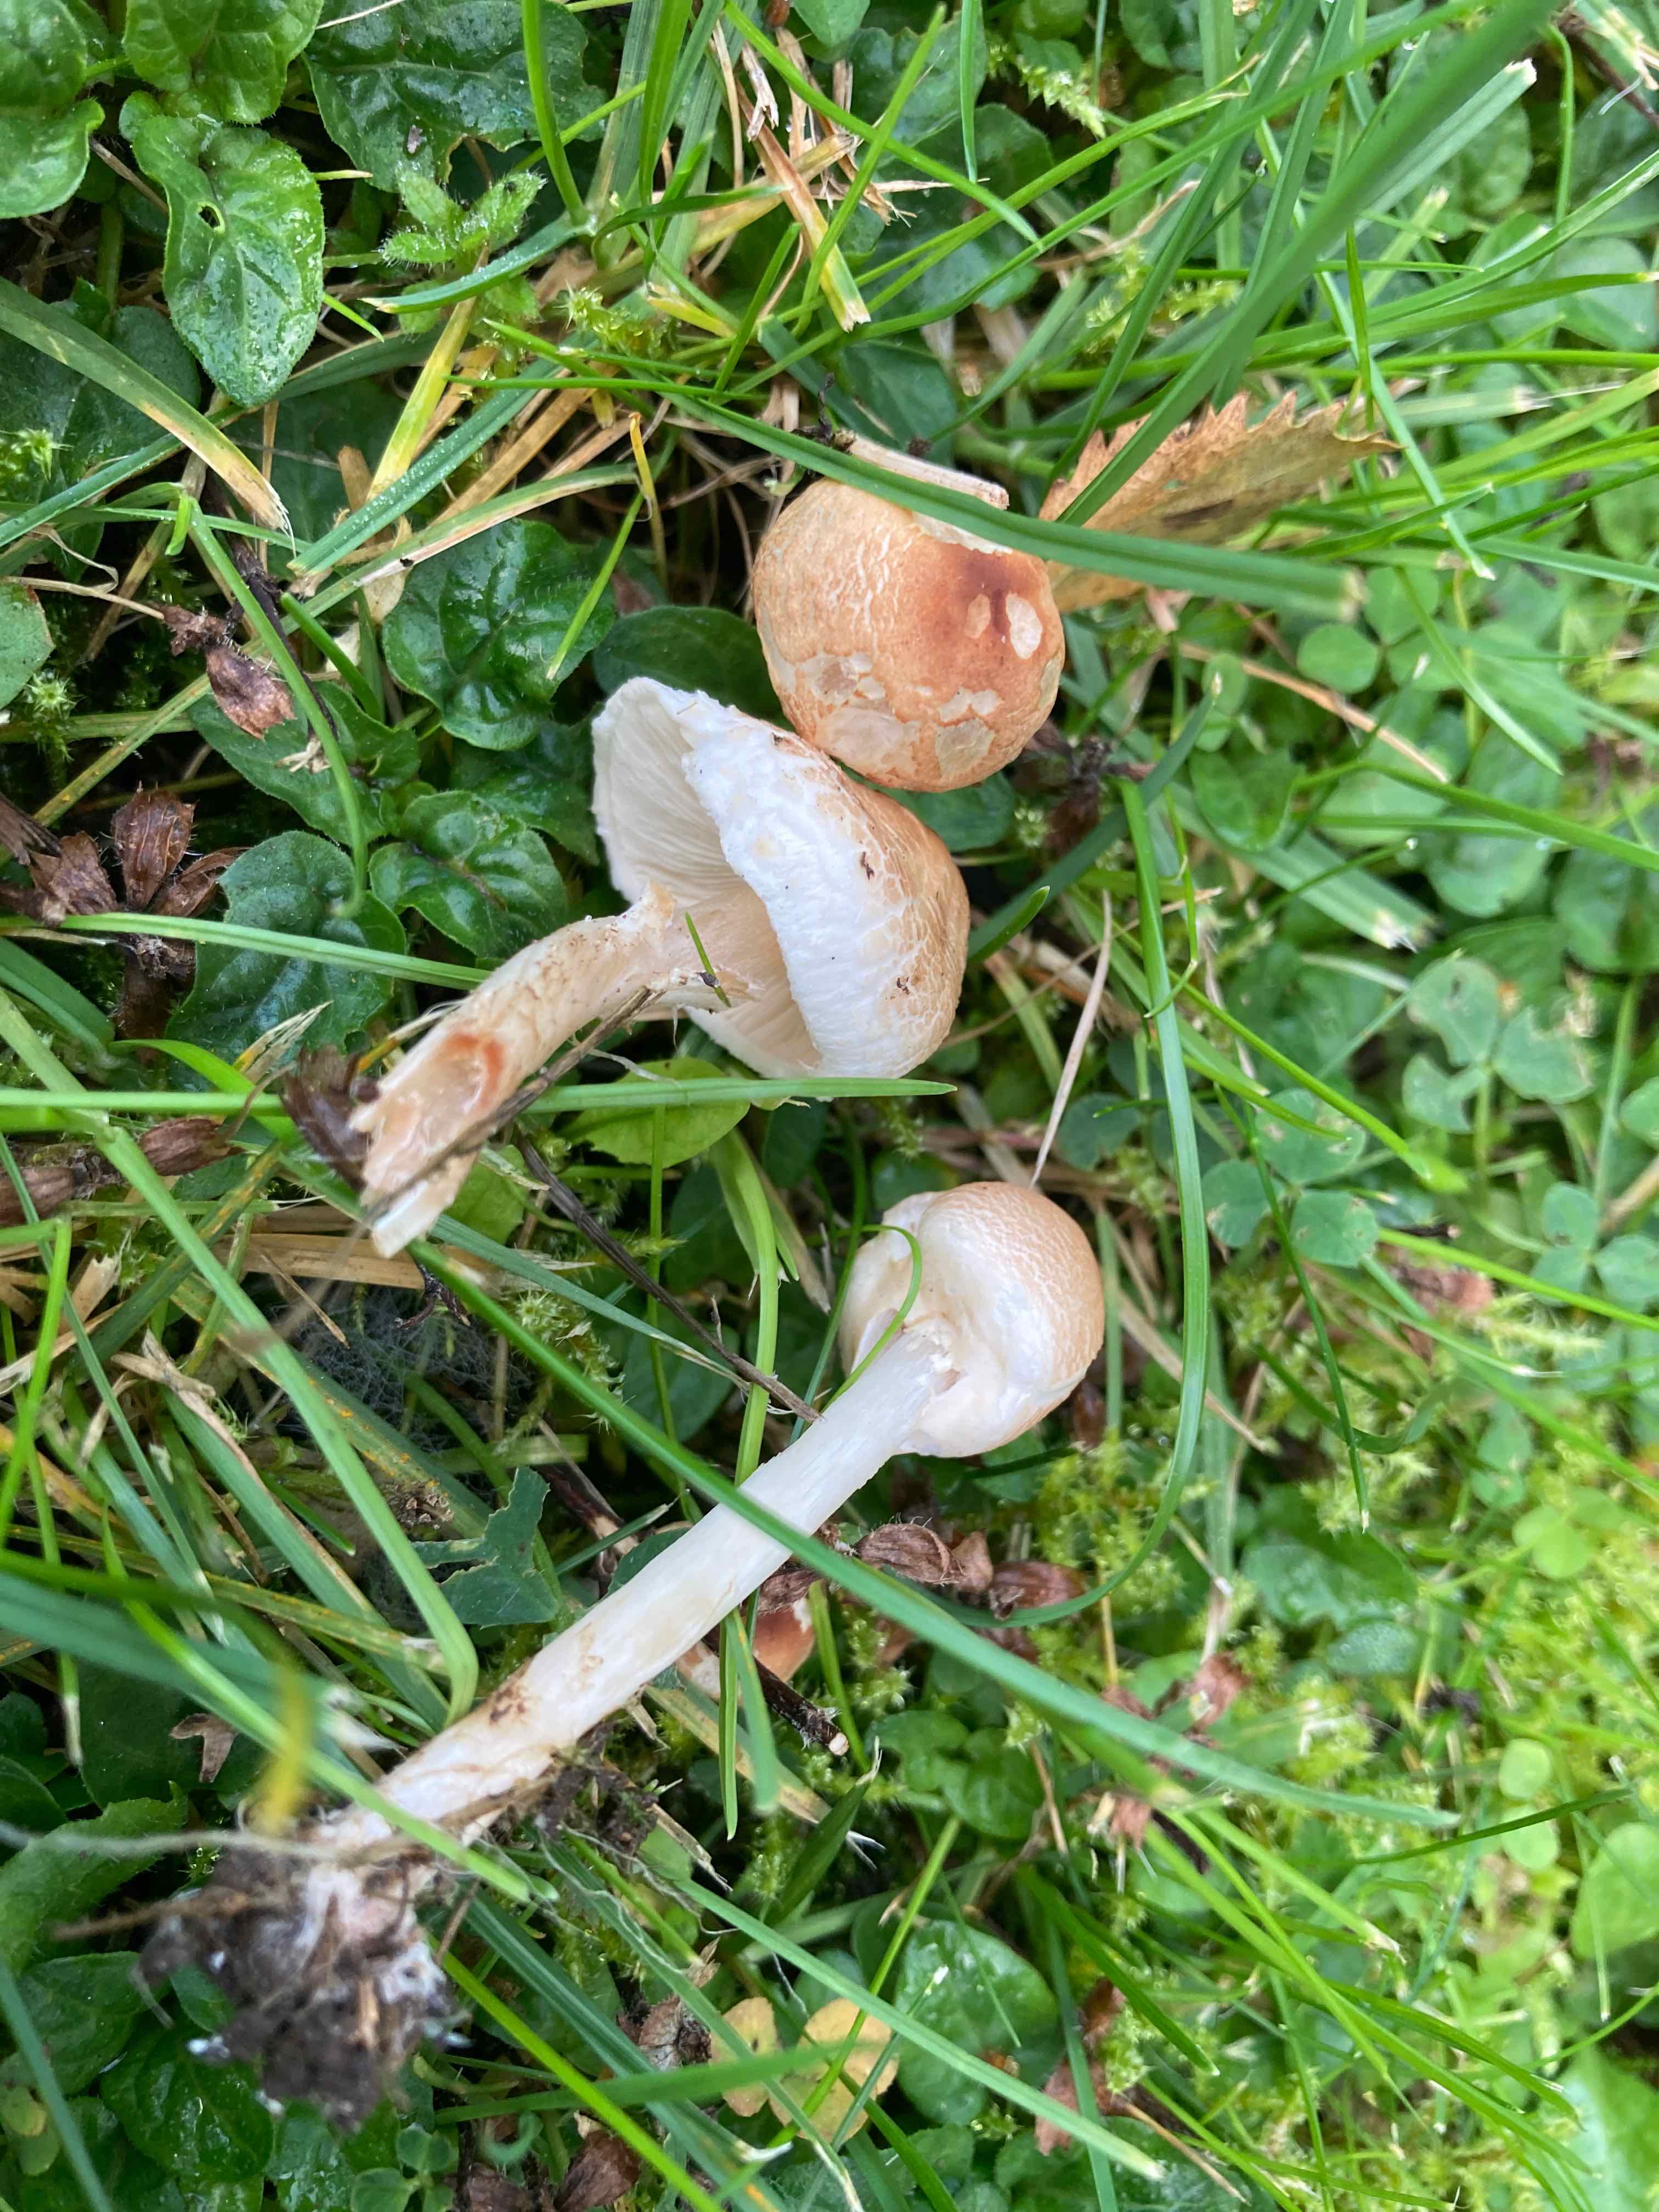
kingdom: Fungi
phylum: Basidiomycota
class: Agaricomycetes
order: Agaricales
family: Agaricaceae
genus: Lepiota
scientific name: Lepiota cristata
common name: stinkende parasolhat
